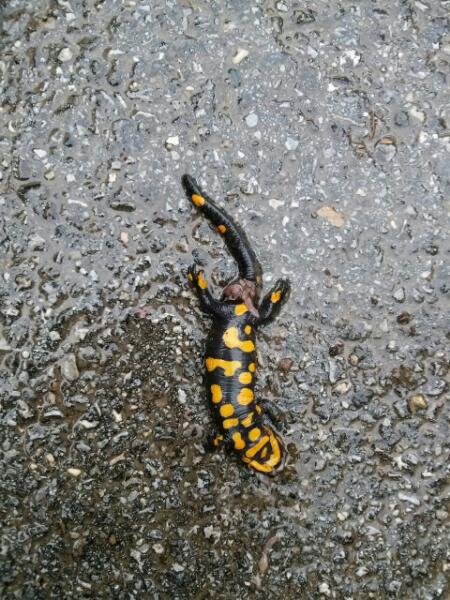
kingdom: Animalia
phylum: Chordata
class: Amphibia
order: Caudata
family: Salamandridae
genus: Salamandra
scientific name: Salamandra salamandra
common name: Fire salamander
